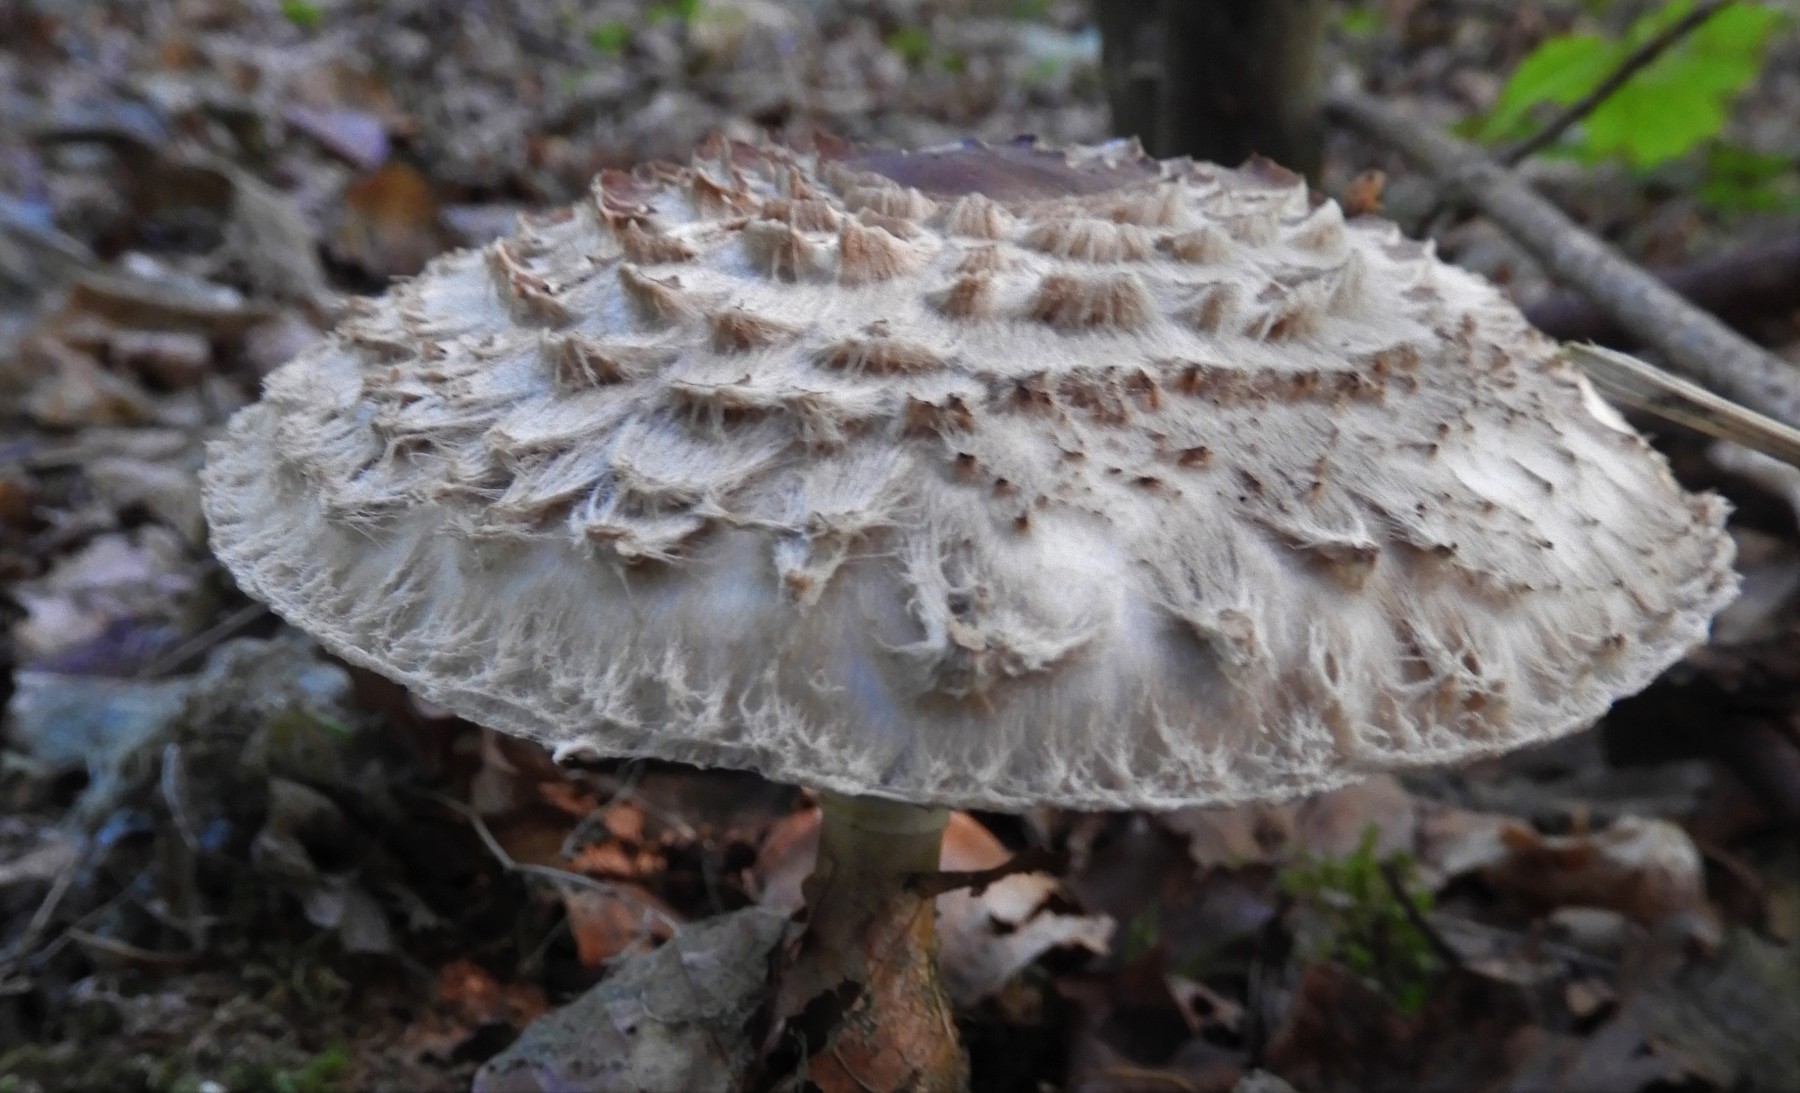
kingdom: Fungi
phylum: Basidiomycota
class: Agaricomycetes
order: Agaricales
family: Agaricaceae
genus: Chlorophyllum
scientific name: Chlorophyllum olivieri
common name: almindelig rabarberhat
